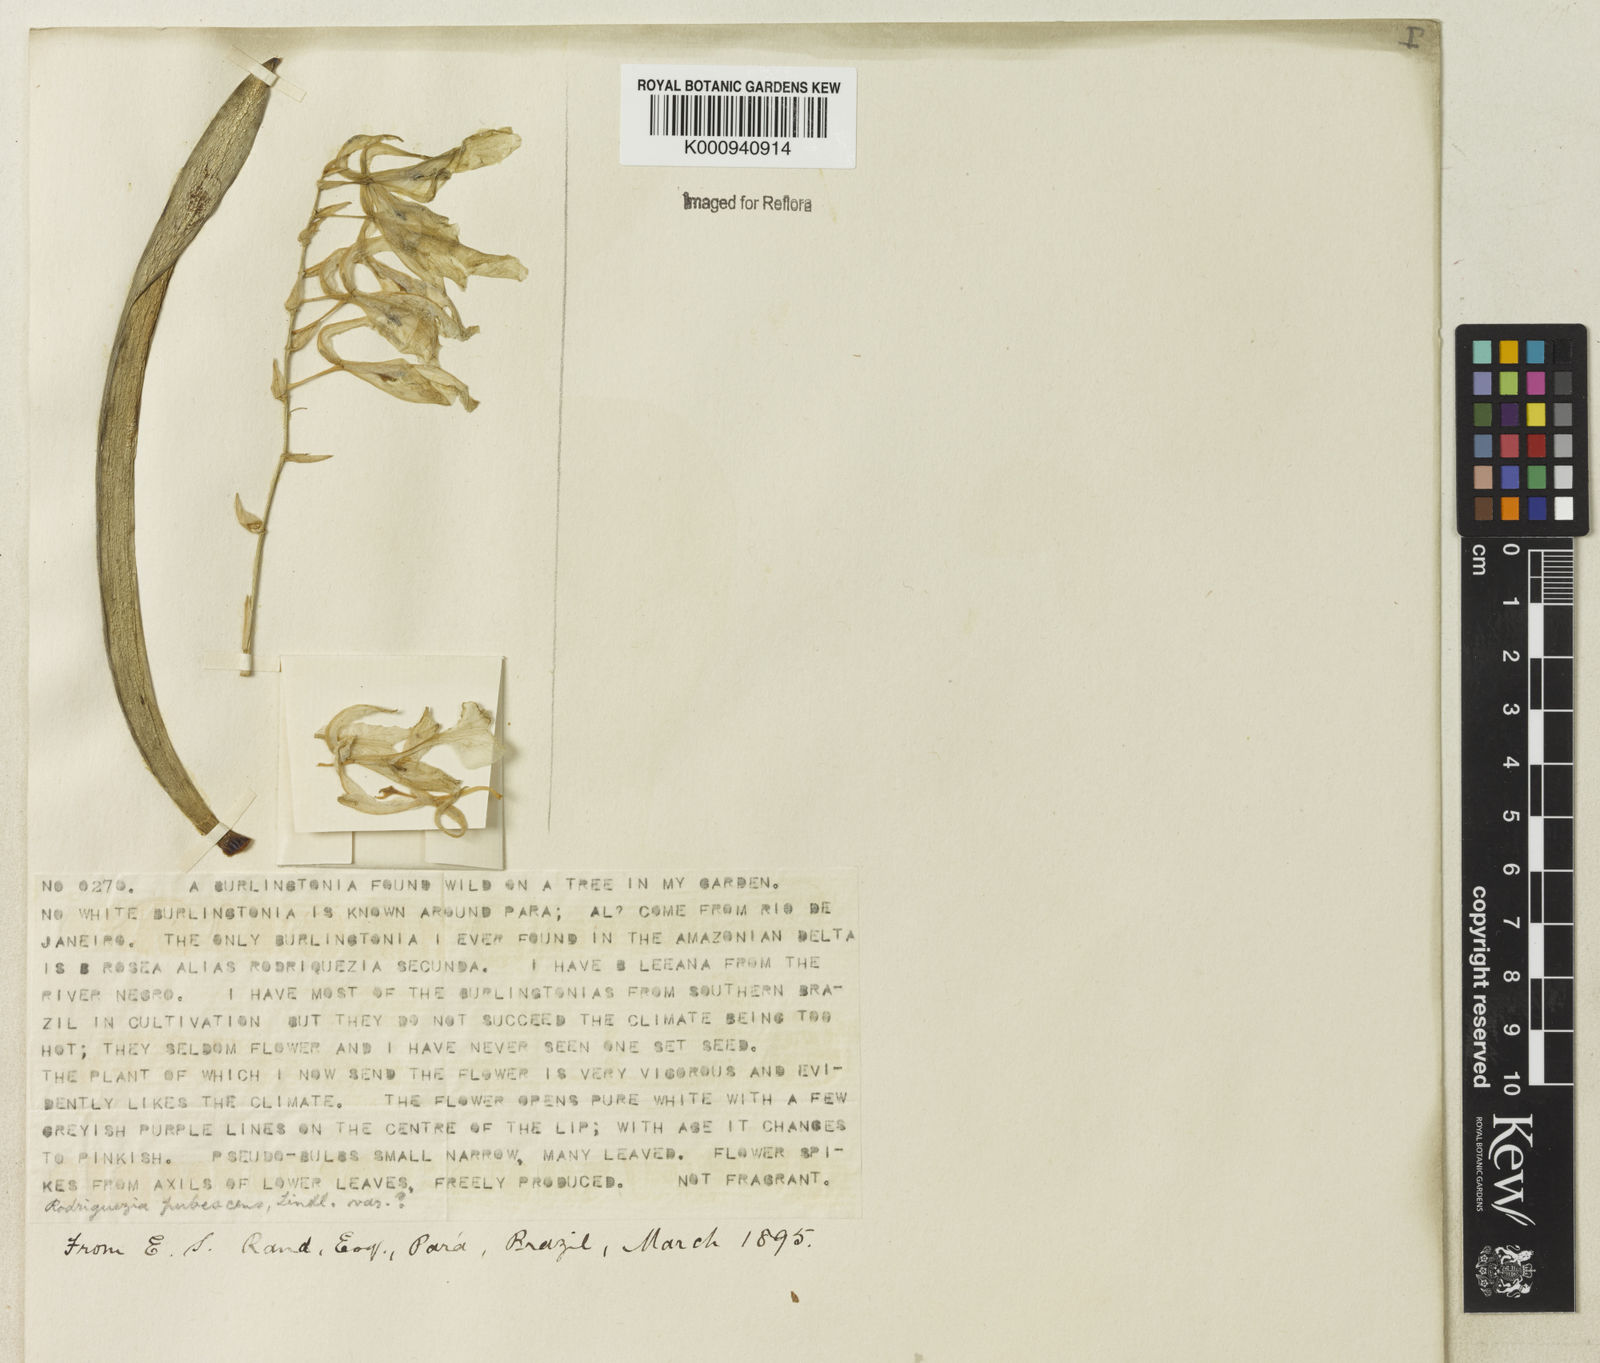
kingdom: Plantae
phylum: Tracheophyta
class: Liliopsida
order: Asparagales
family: Orchidaceae
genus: Rodriguezia
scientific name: Rodriguezia pubescens
